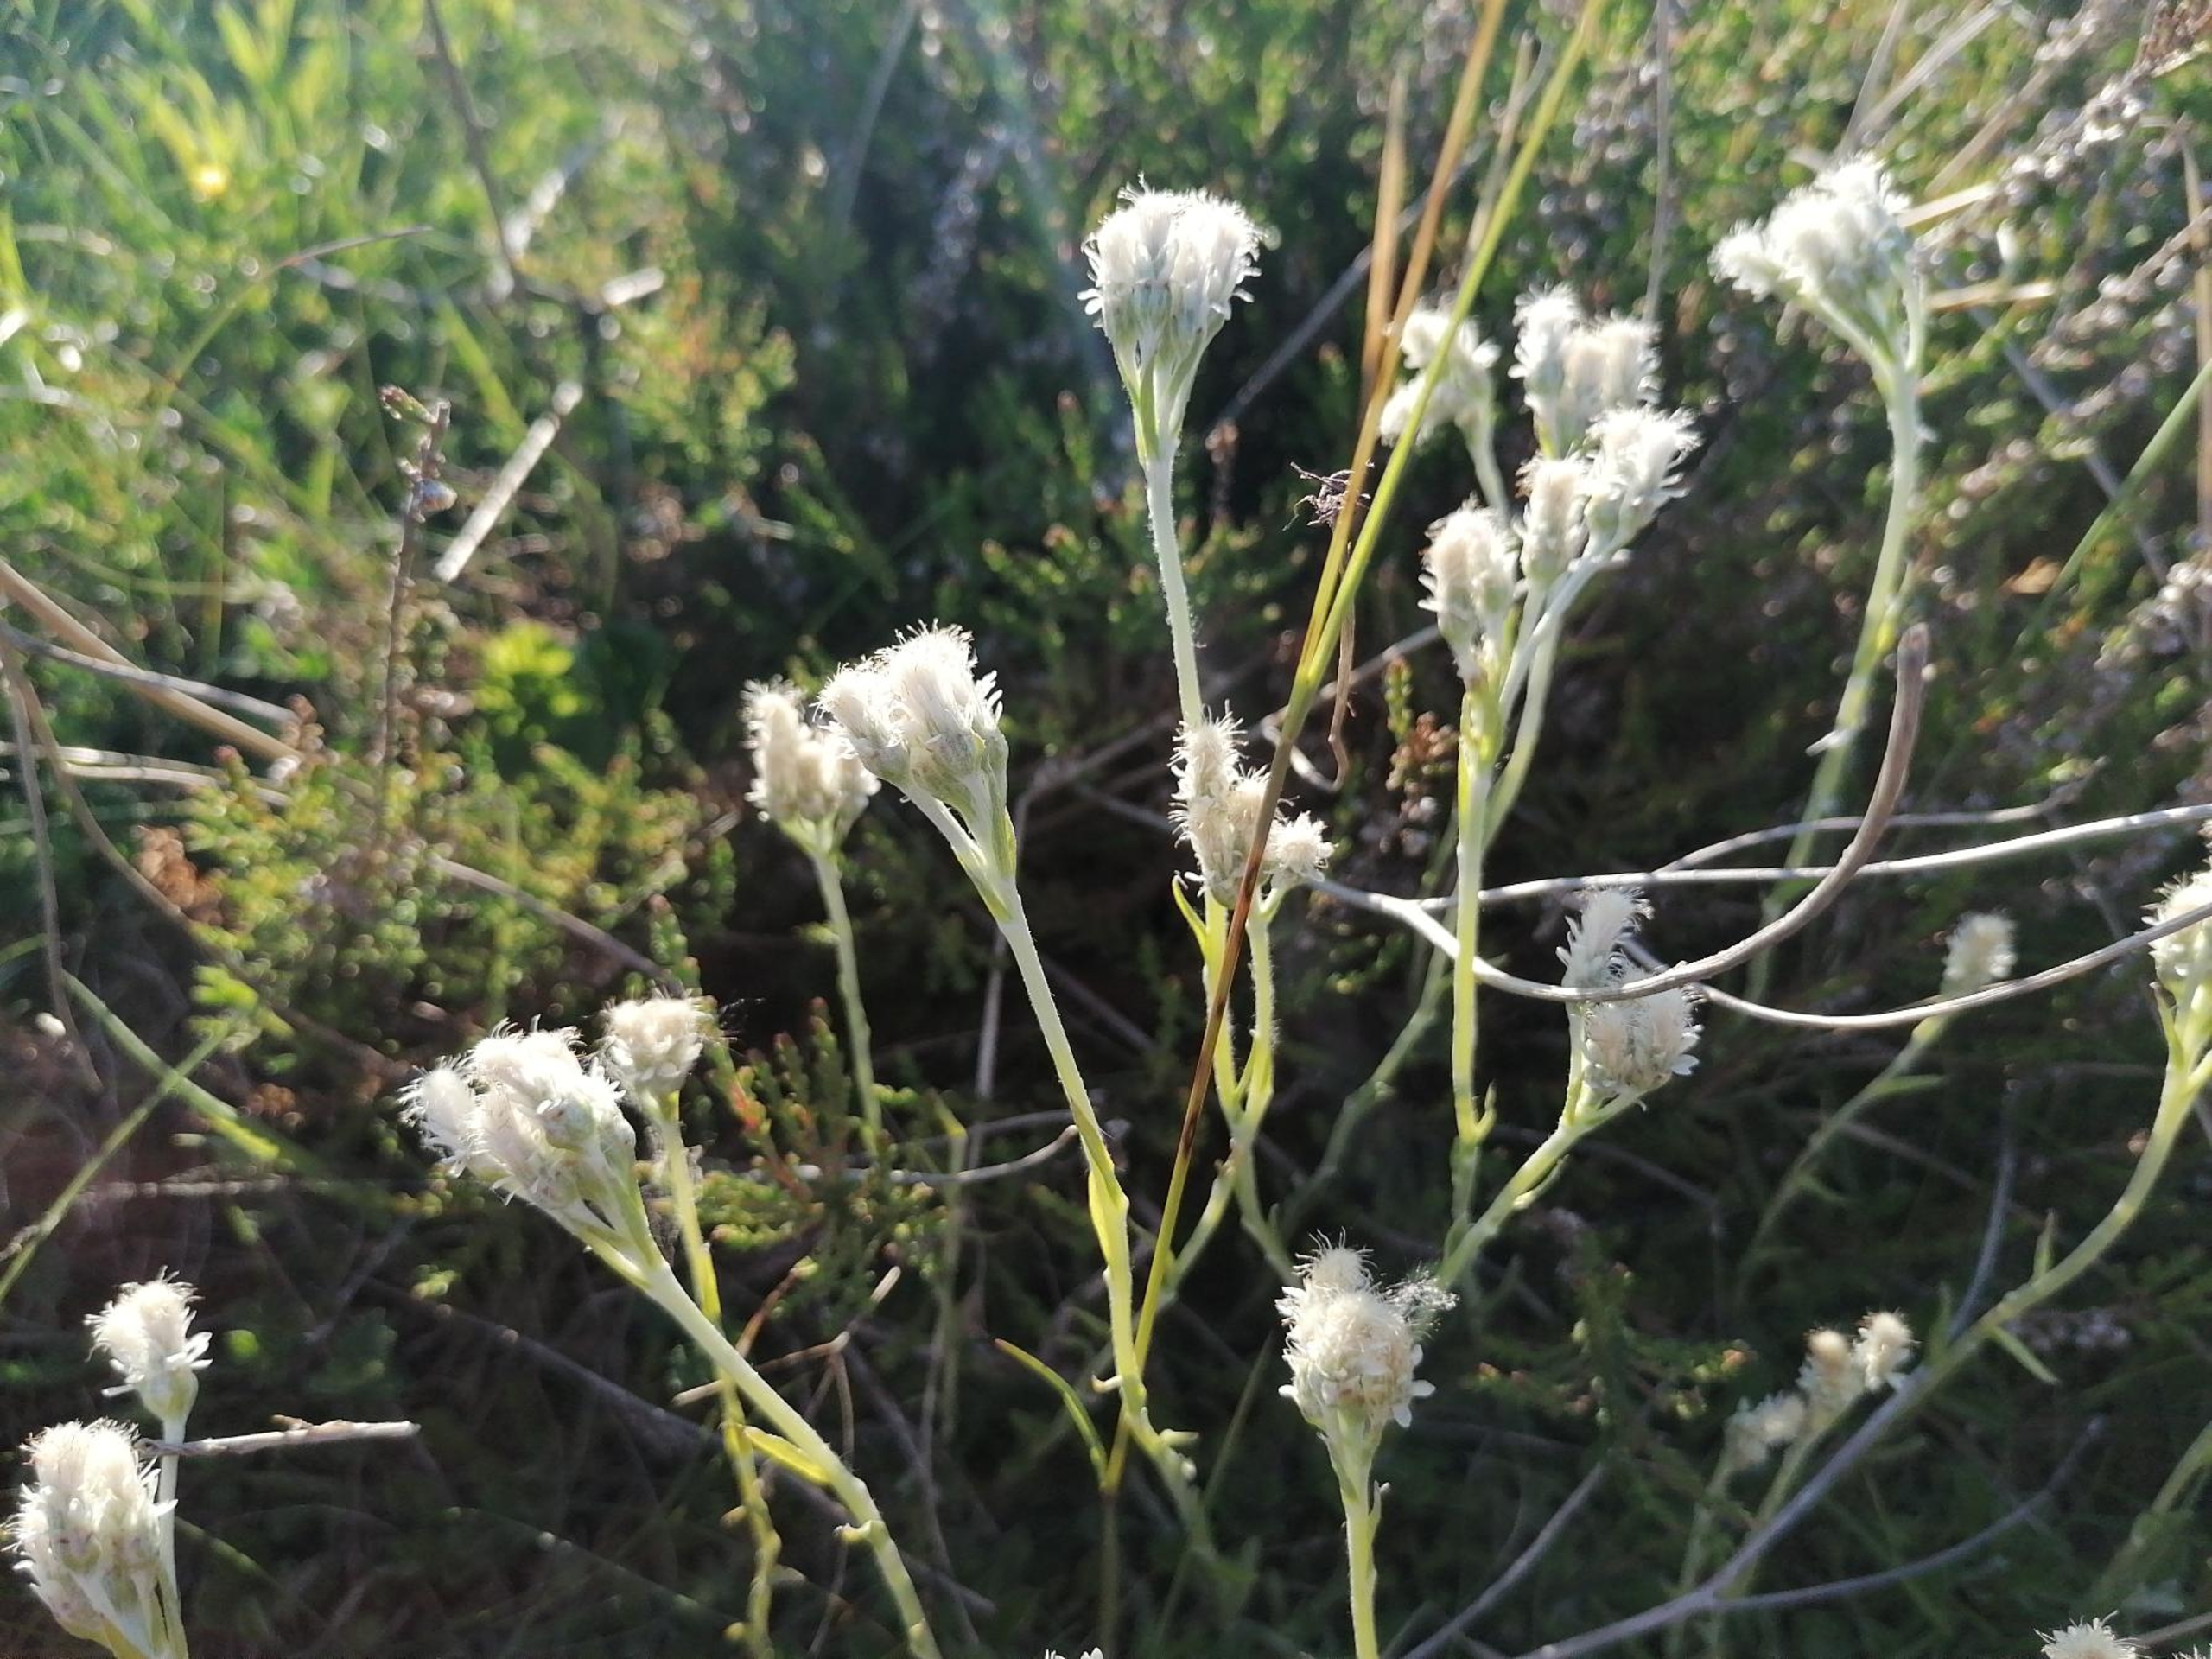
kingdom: Plantae
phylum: Tracheophyta
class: Magnoliopsida
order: Asterales
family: Asteraceae
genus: Antennaria
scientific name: Antennaria dioica
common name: Kattefod
